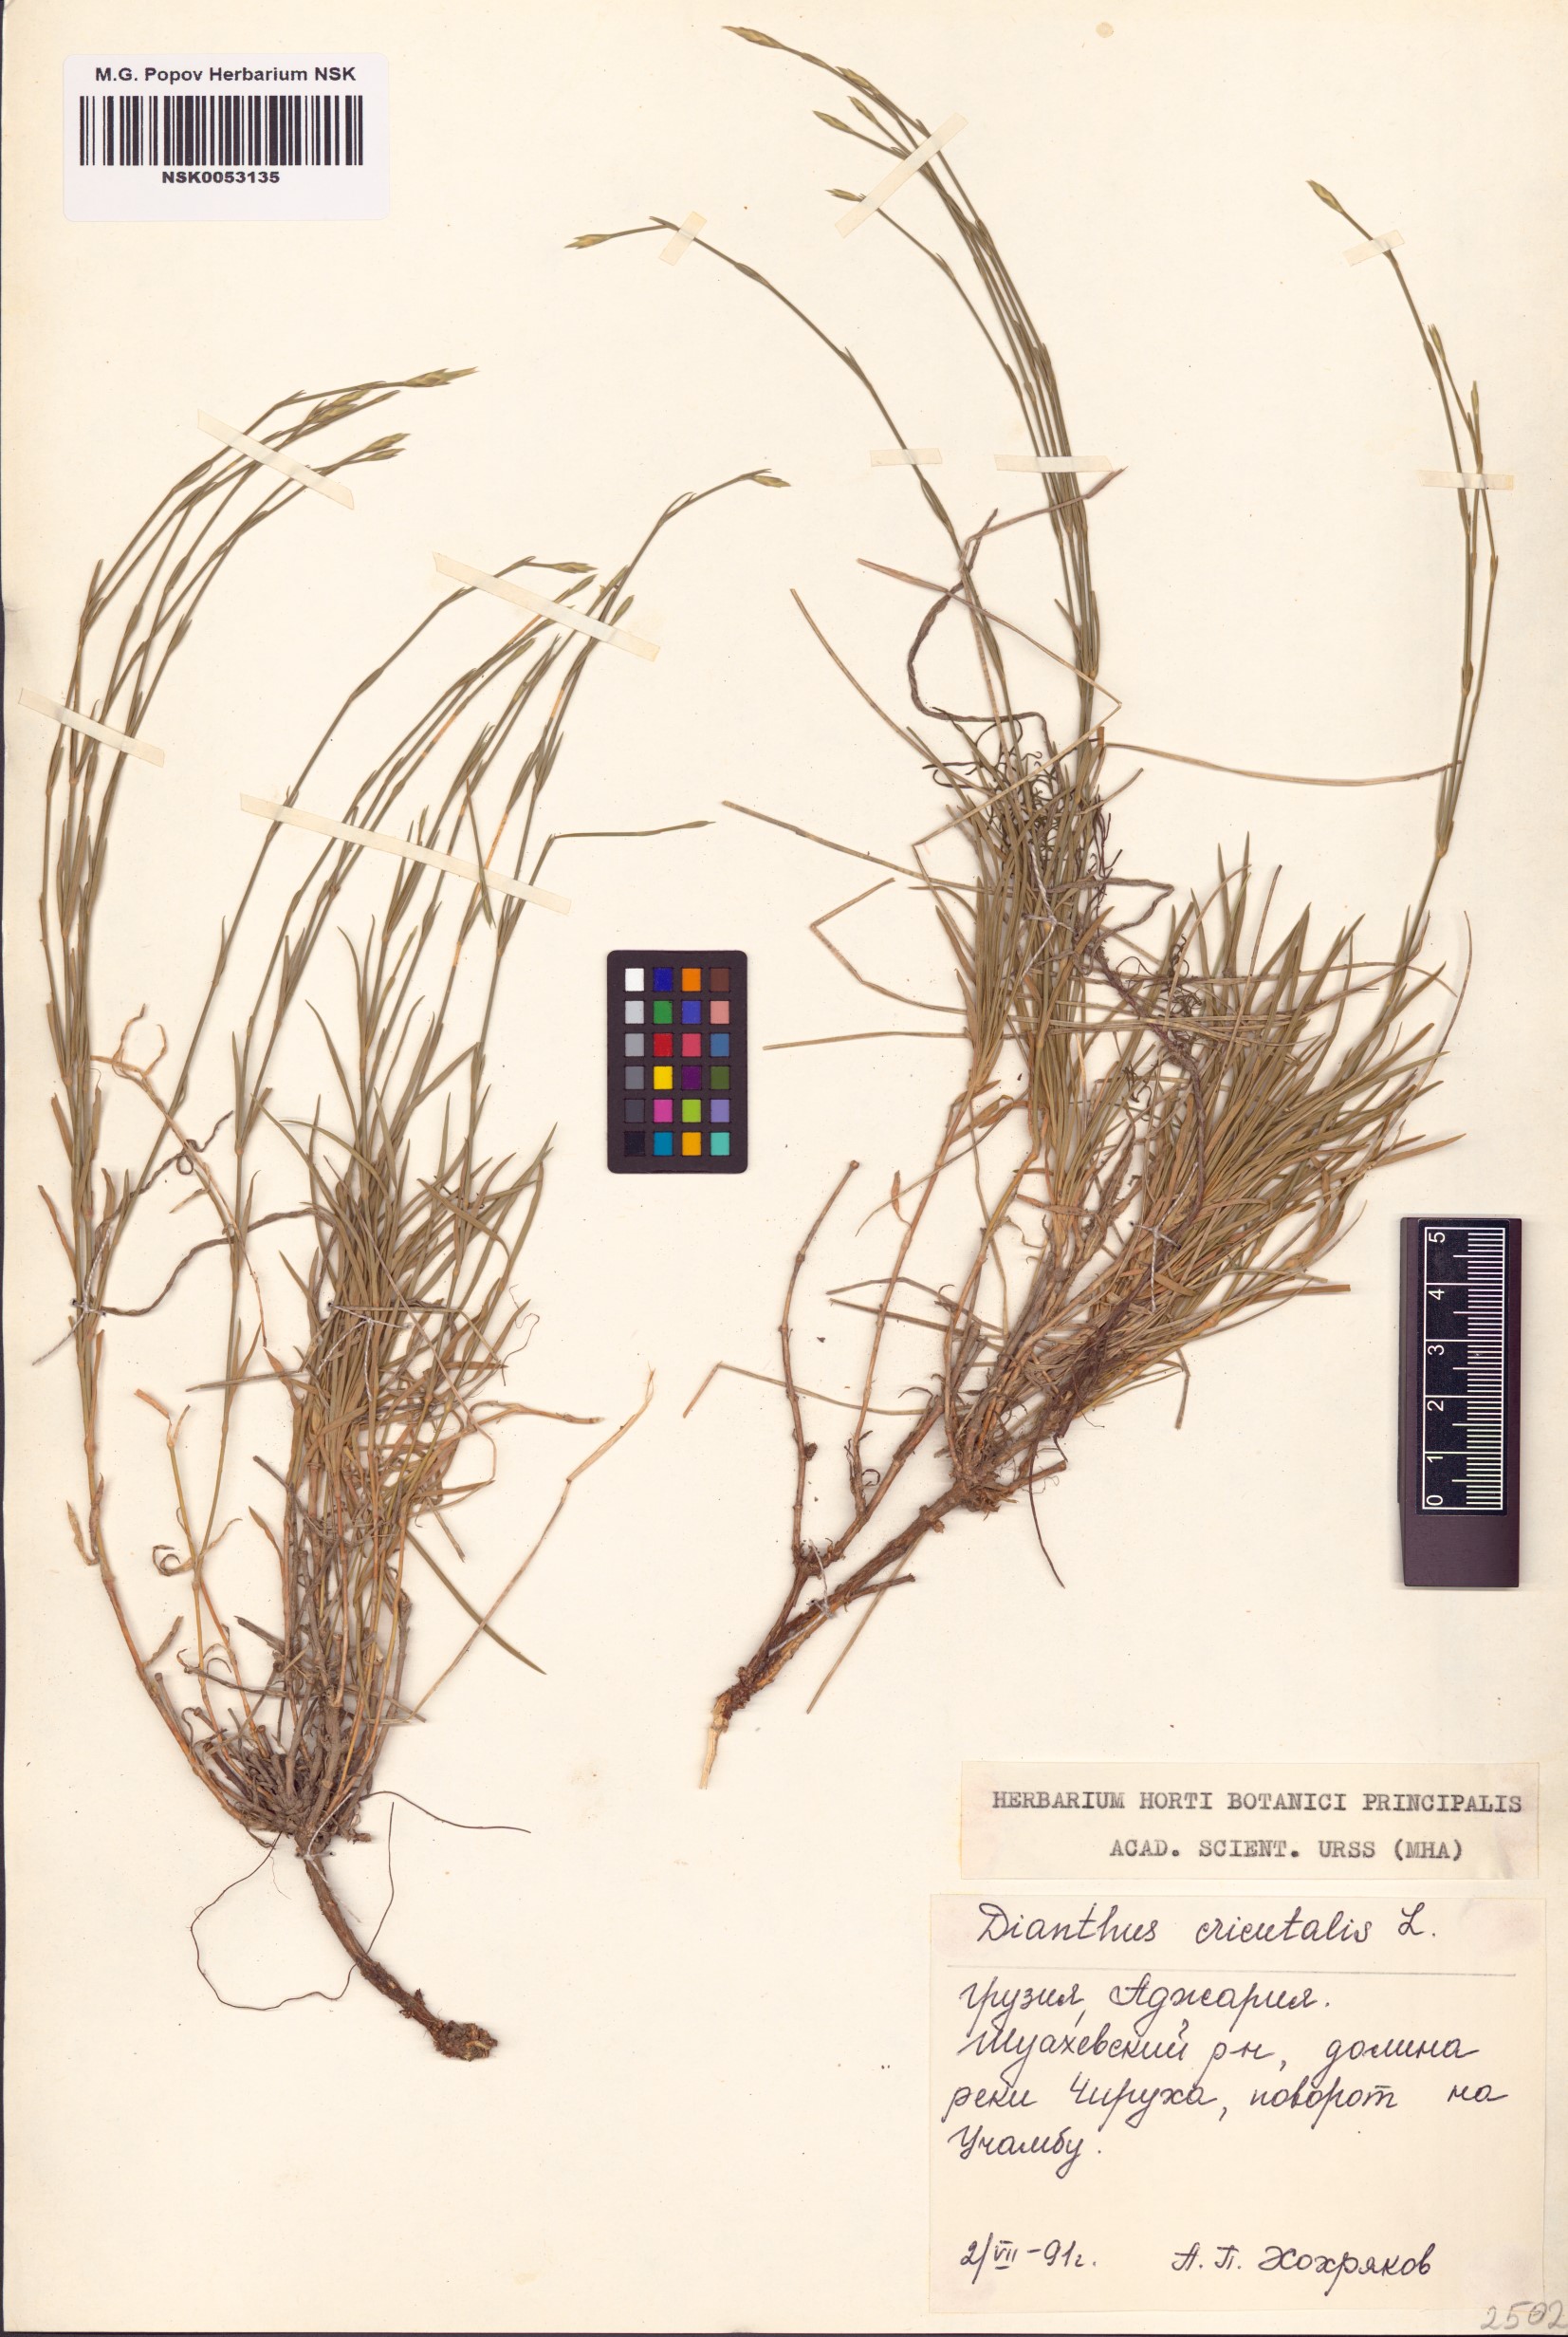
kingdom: Plantae
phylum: Tracheophyta
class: Magnoliopsida
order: Caryophyllales
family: Caryophyllaceae
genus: Dianthus
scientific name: Dianthus orientalis
